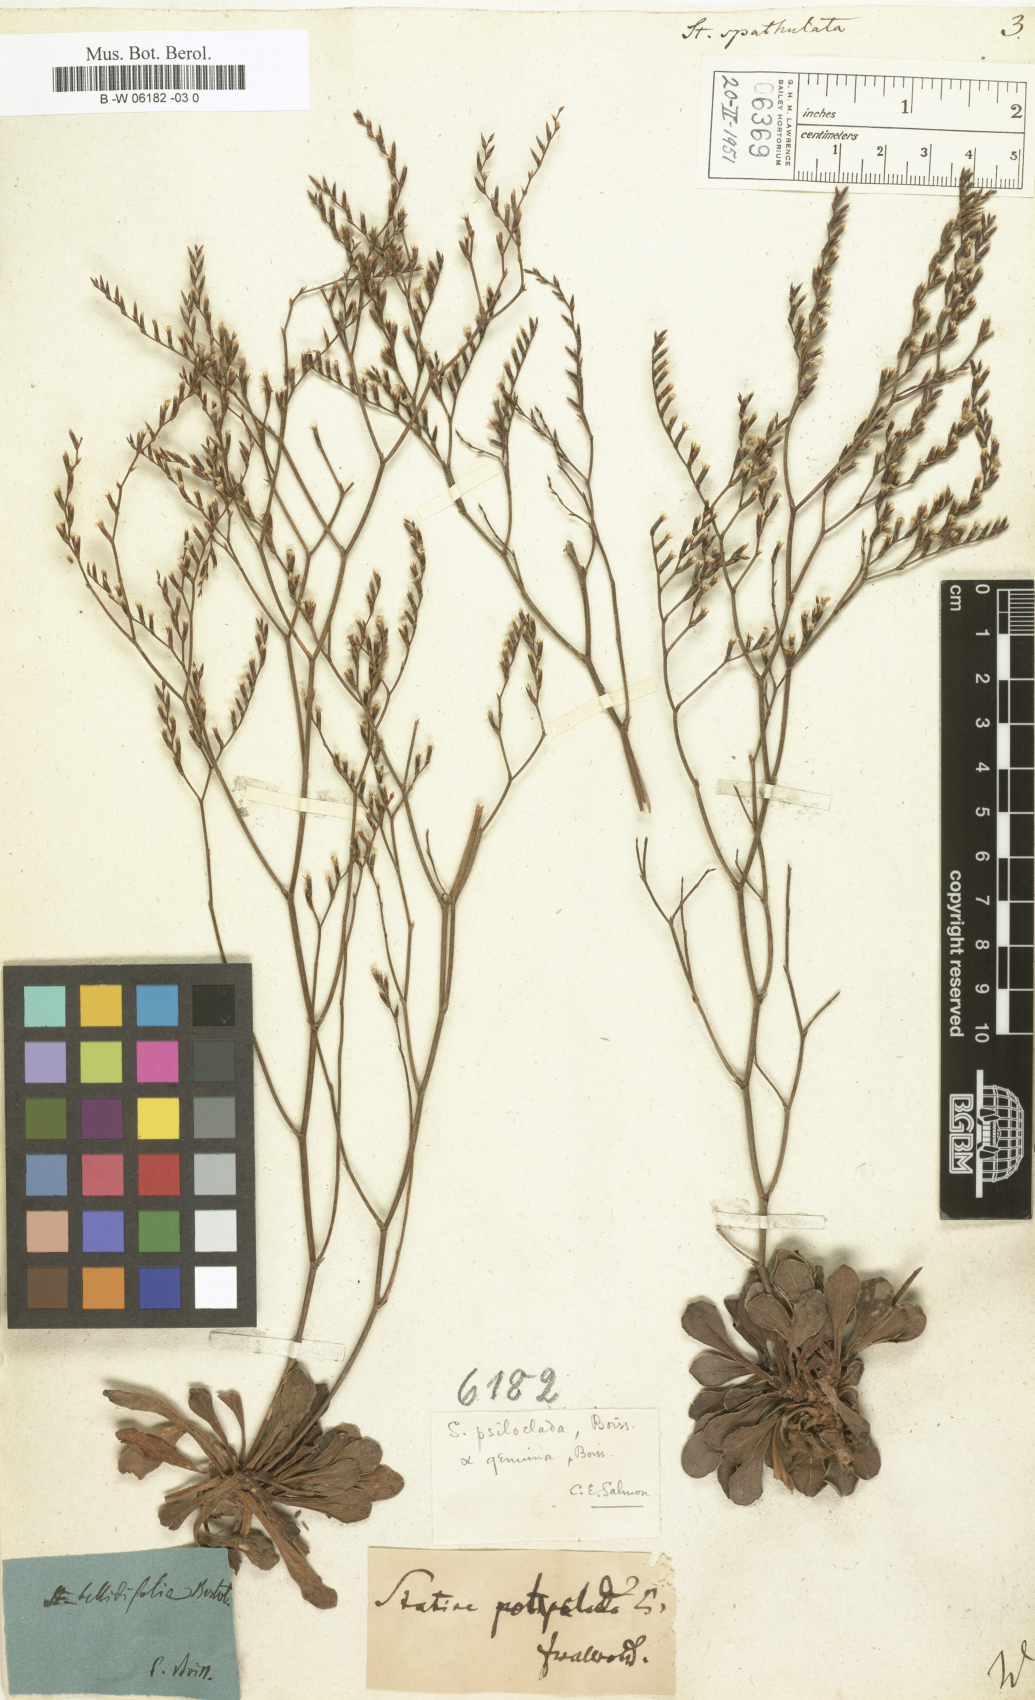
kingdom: Plantae
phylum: Tracheophyta
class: Magnoliopsida
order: Caryophyllales
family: Plumbaginaceae
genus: Limonium
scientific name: Limonium
